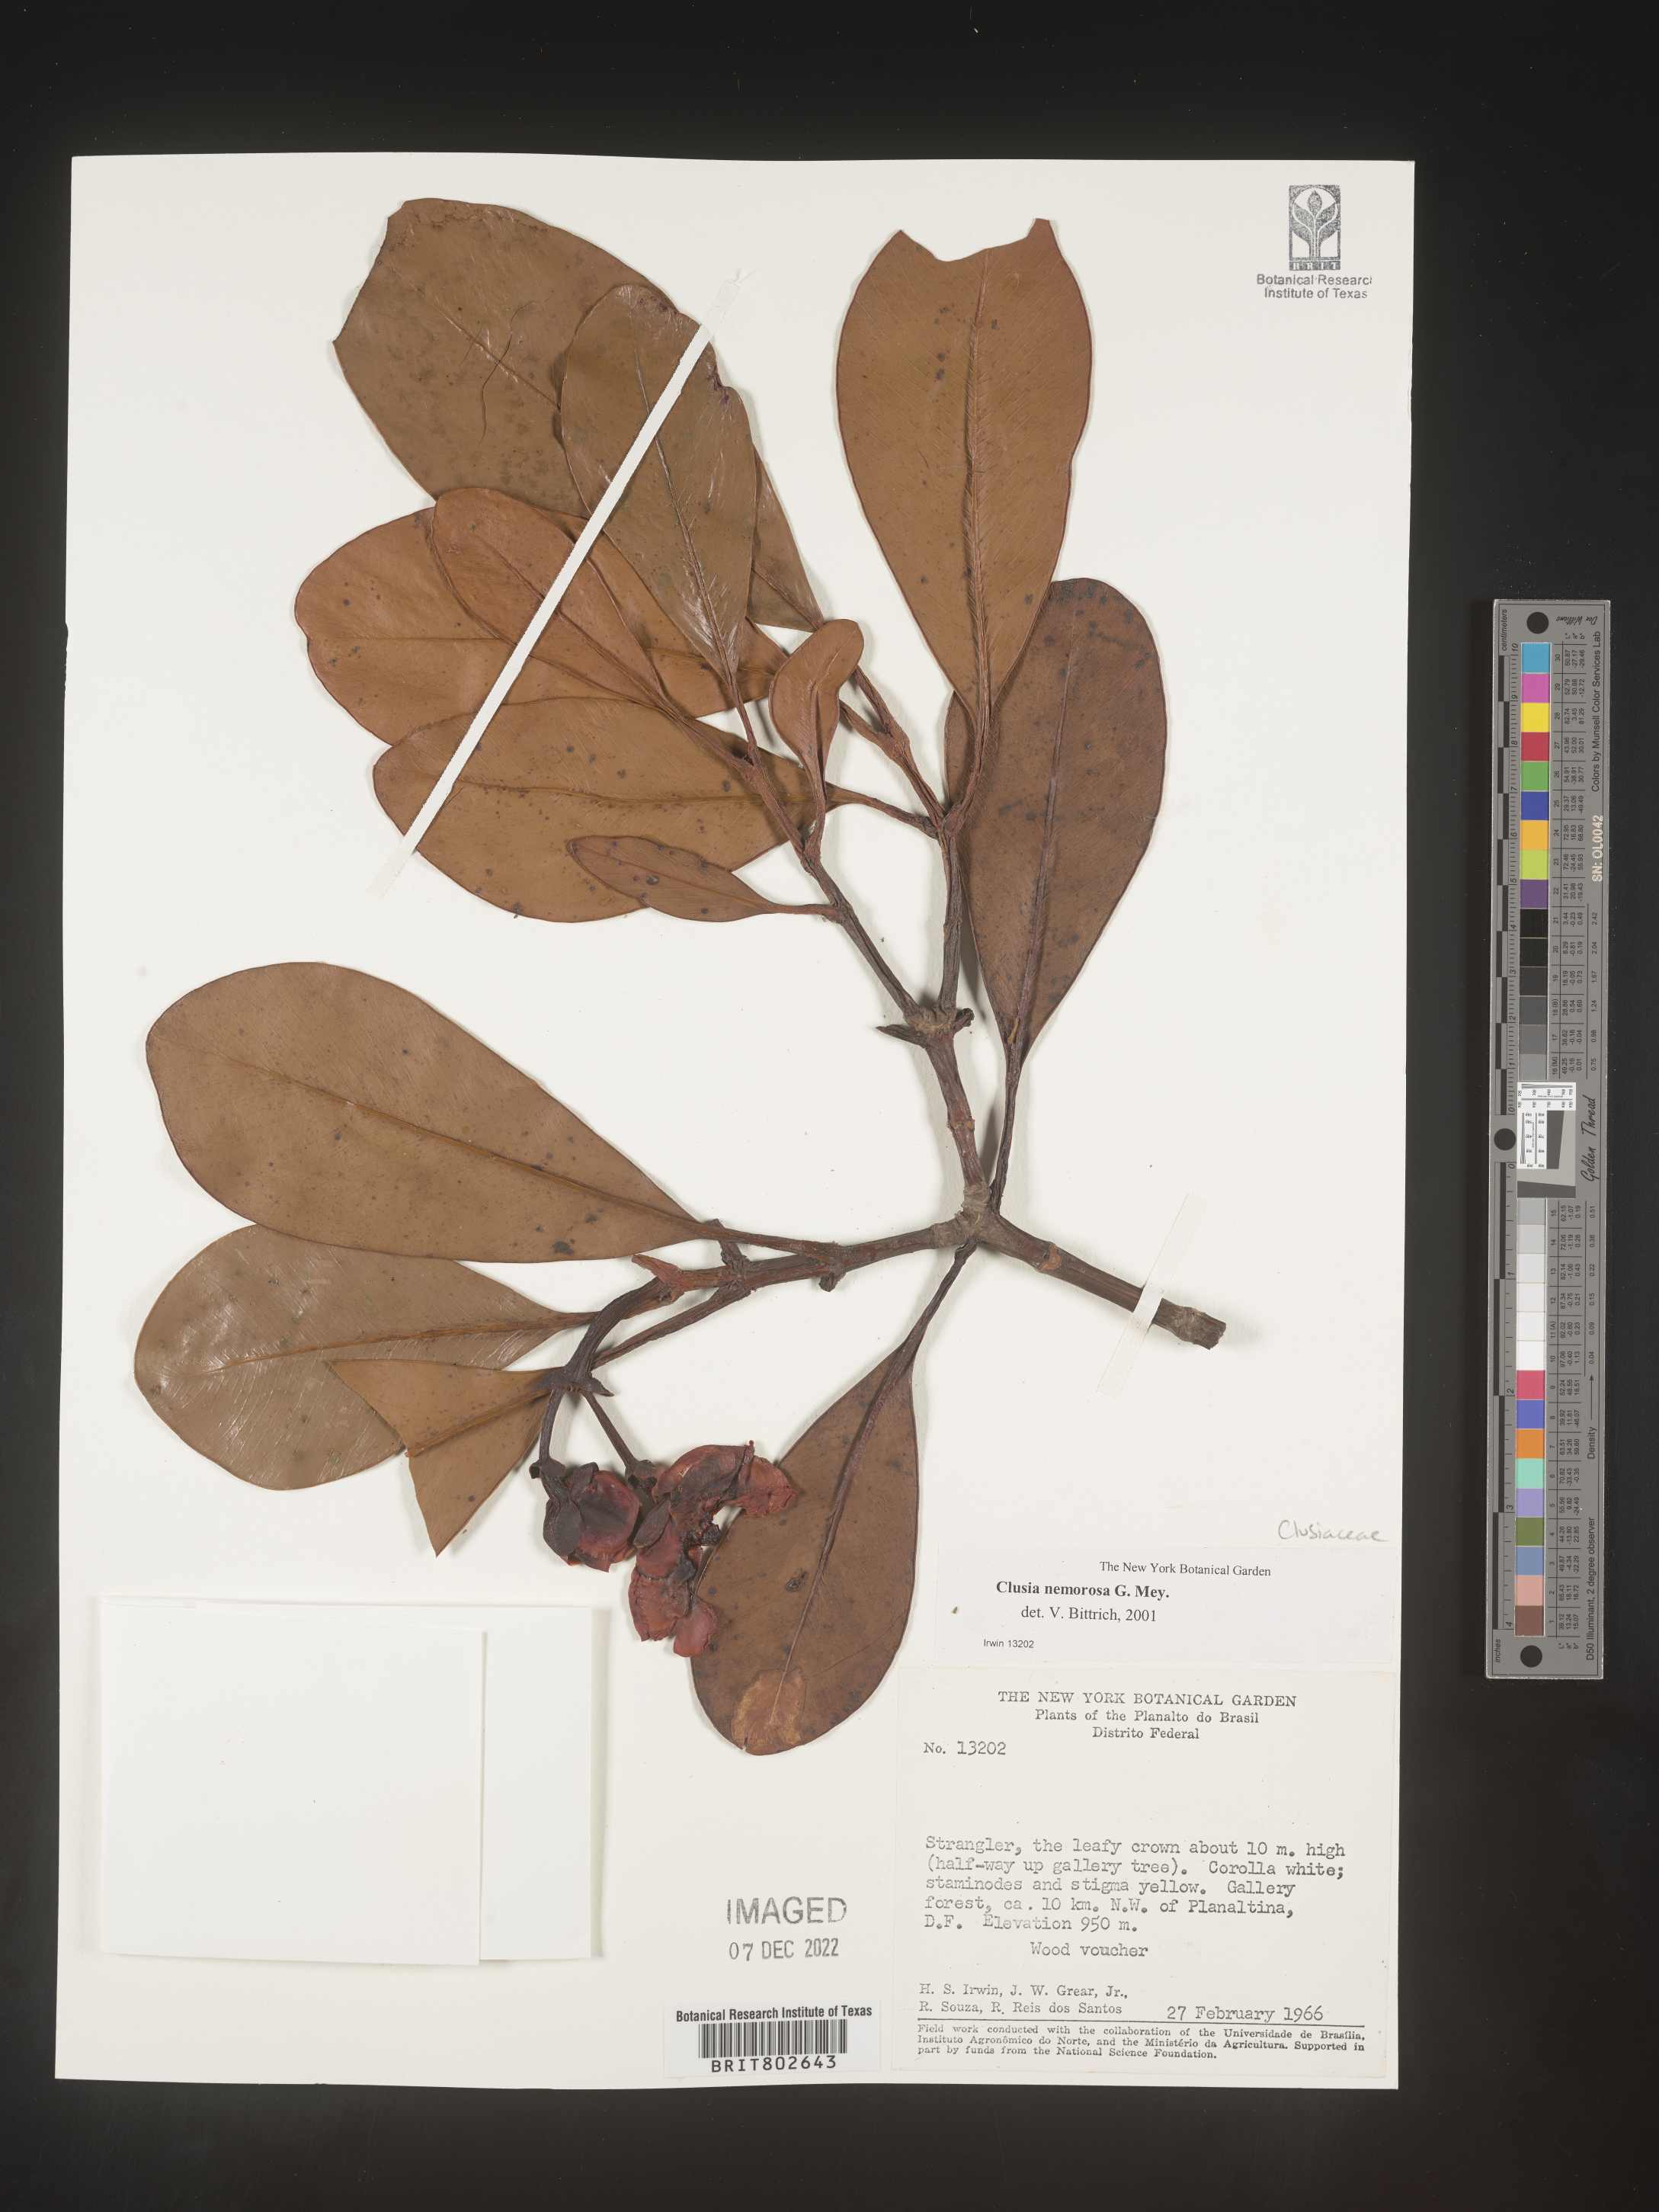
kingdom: Plantae
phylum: Tracheophyta
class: Magnoliopsida
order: Malpighiales
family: Clusiaceae
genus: Clusia
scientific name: Clusia nemorosa
